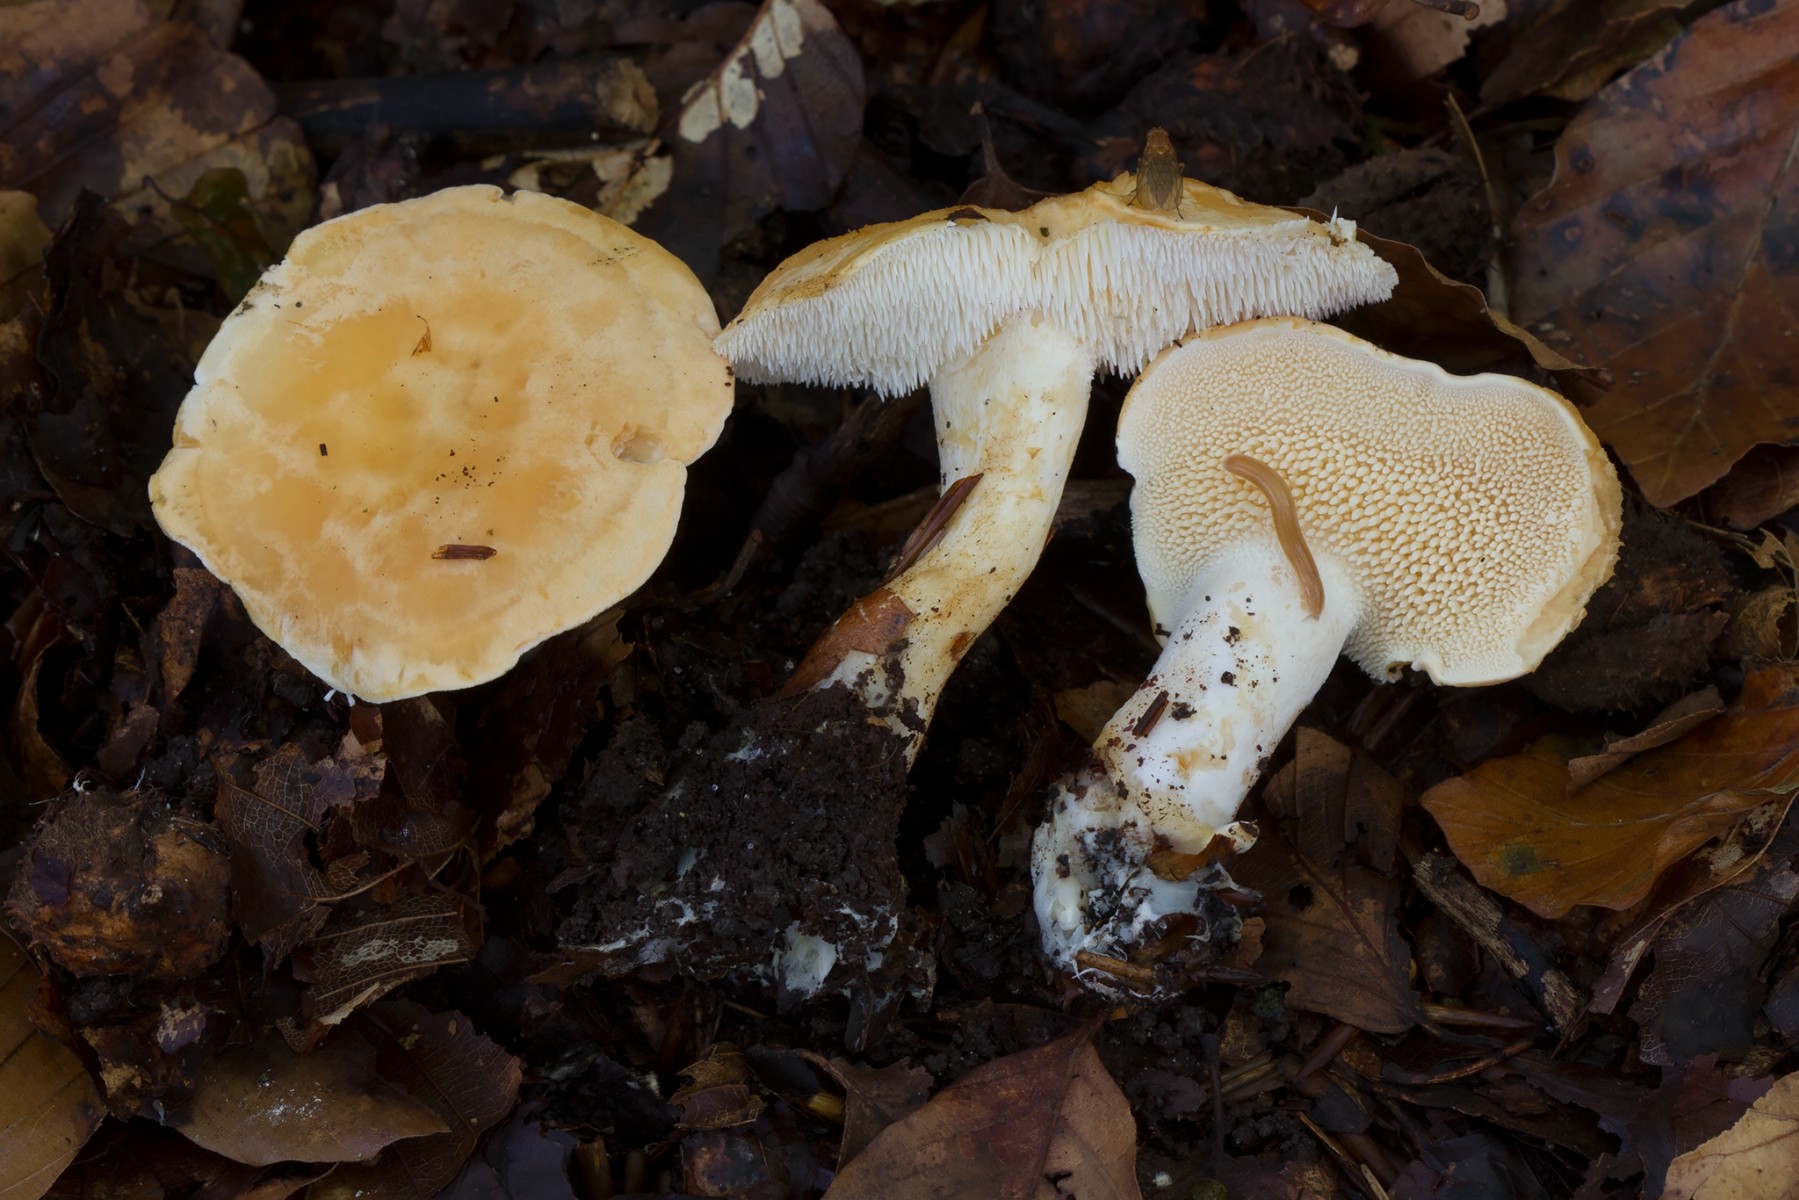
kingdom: Fungi
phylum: Basidiomycota
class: Agaricomycetes
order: Cantharellales
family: Hydnaceae
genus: Hydnum
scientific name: Hydnum magnorufescens
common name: brunende pigsvamp
